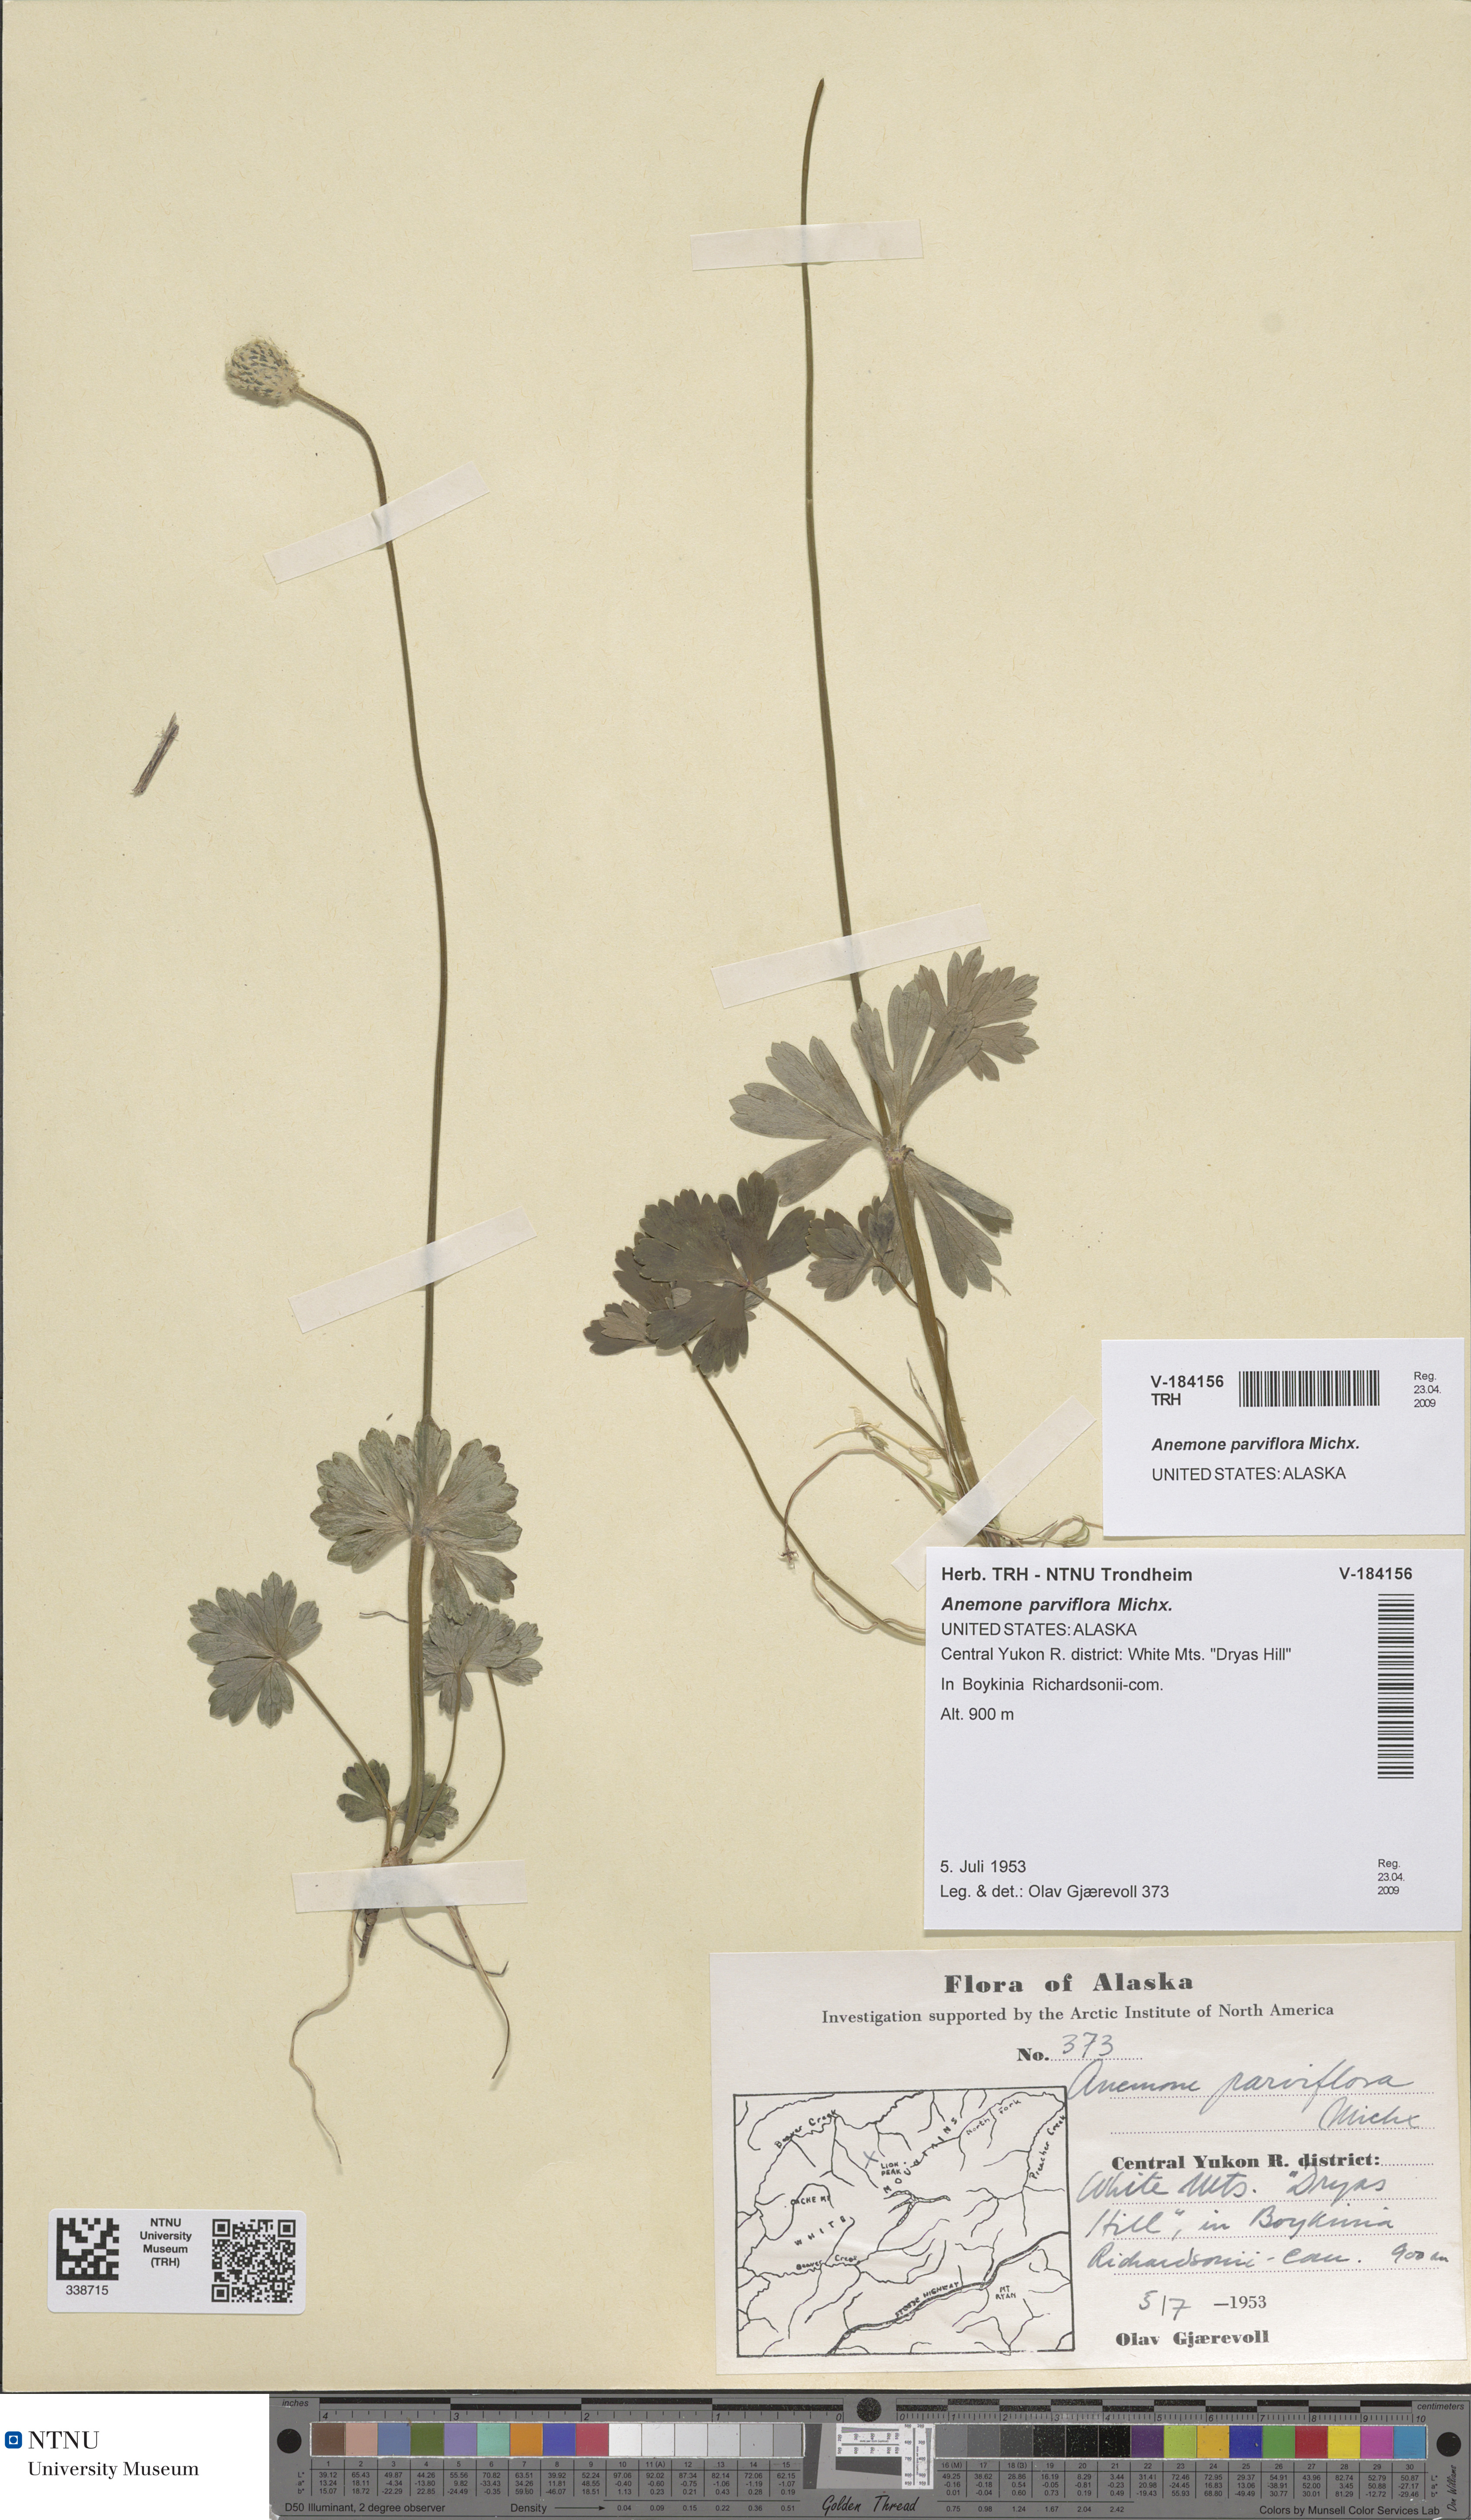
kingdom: Plantae
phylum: Tracheophyta
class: Magnoliopsida
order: Ranunculales
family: Ranunculaceae
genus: Anemone
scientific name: Anemone parviflora
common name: Northern anemone
